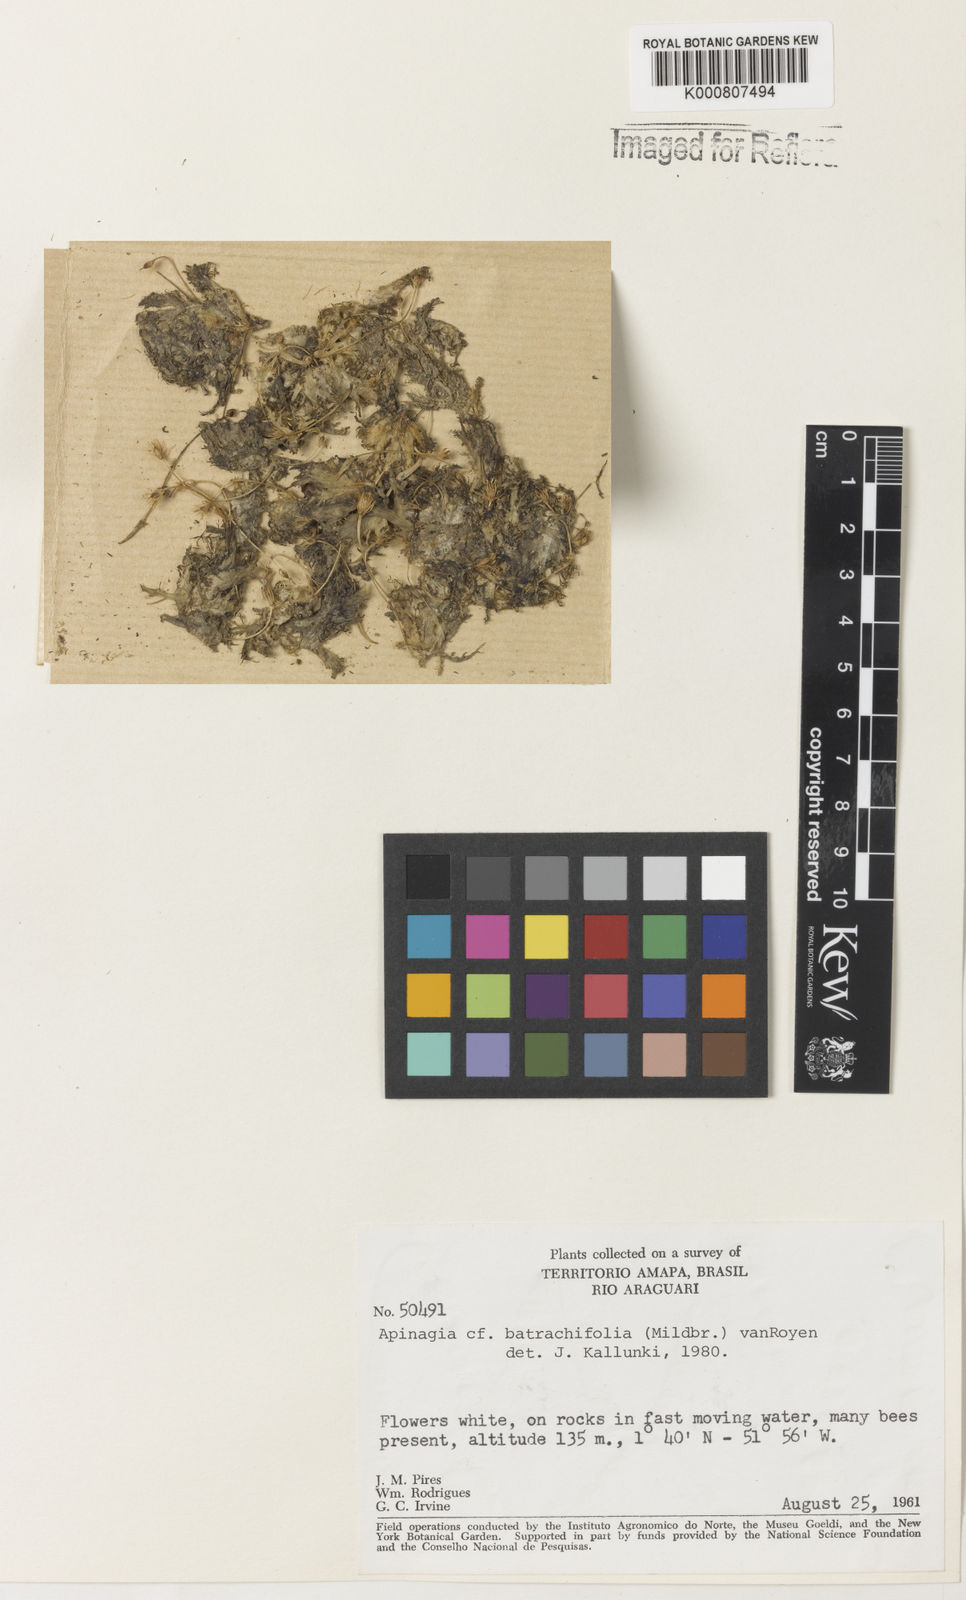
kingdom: Plantae
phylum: Tracheophyta
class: Magnoliopsida
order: Malpighiales
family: Podostemaceae
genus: Rhyncholacis
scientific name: Rhyncholacis
